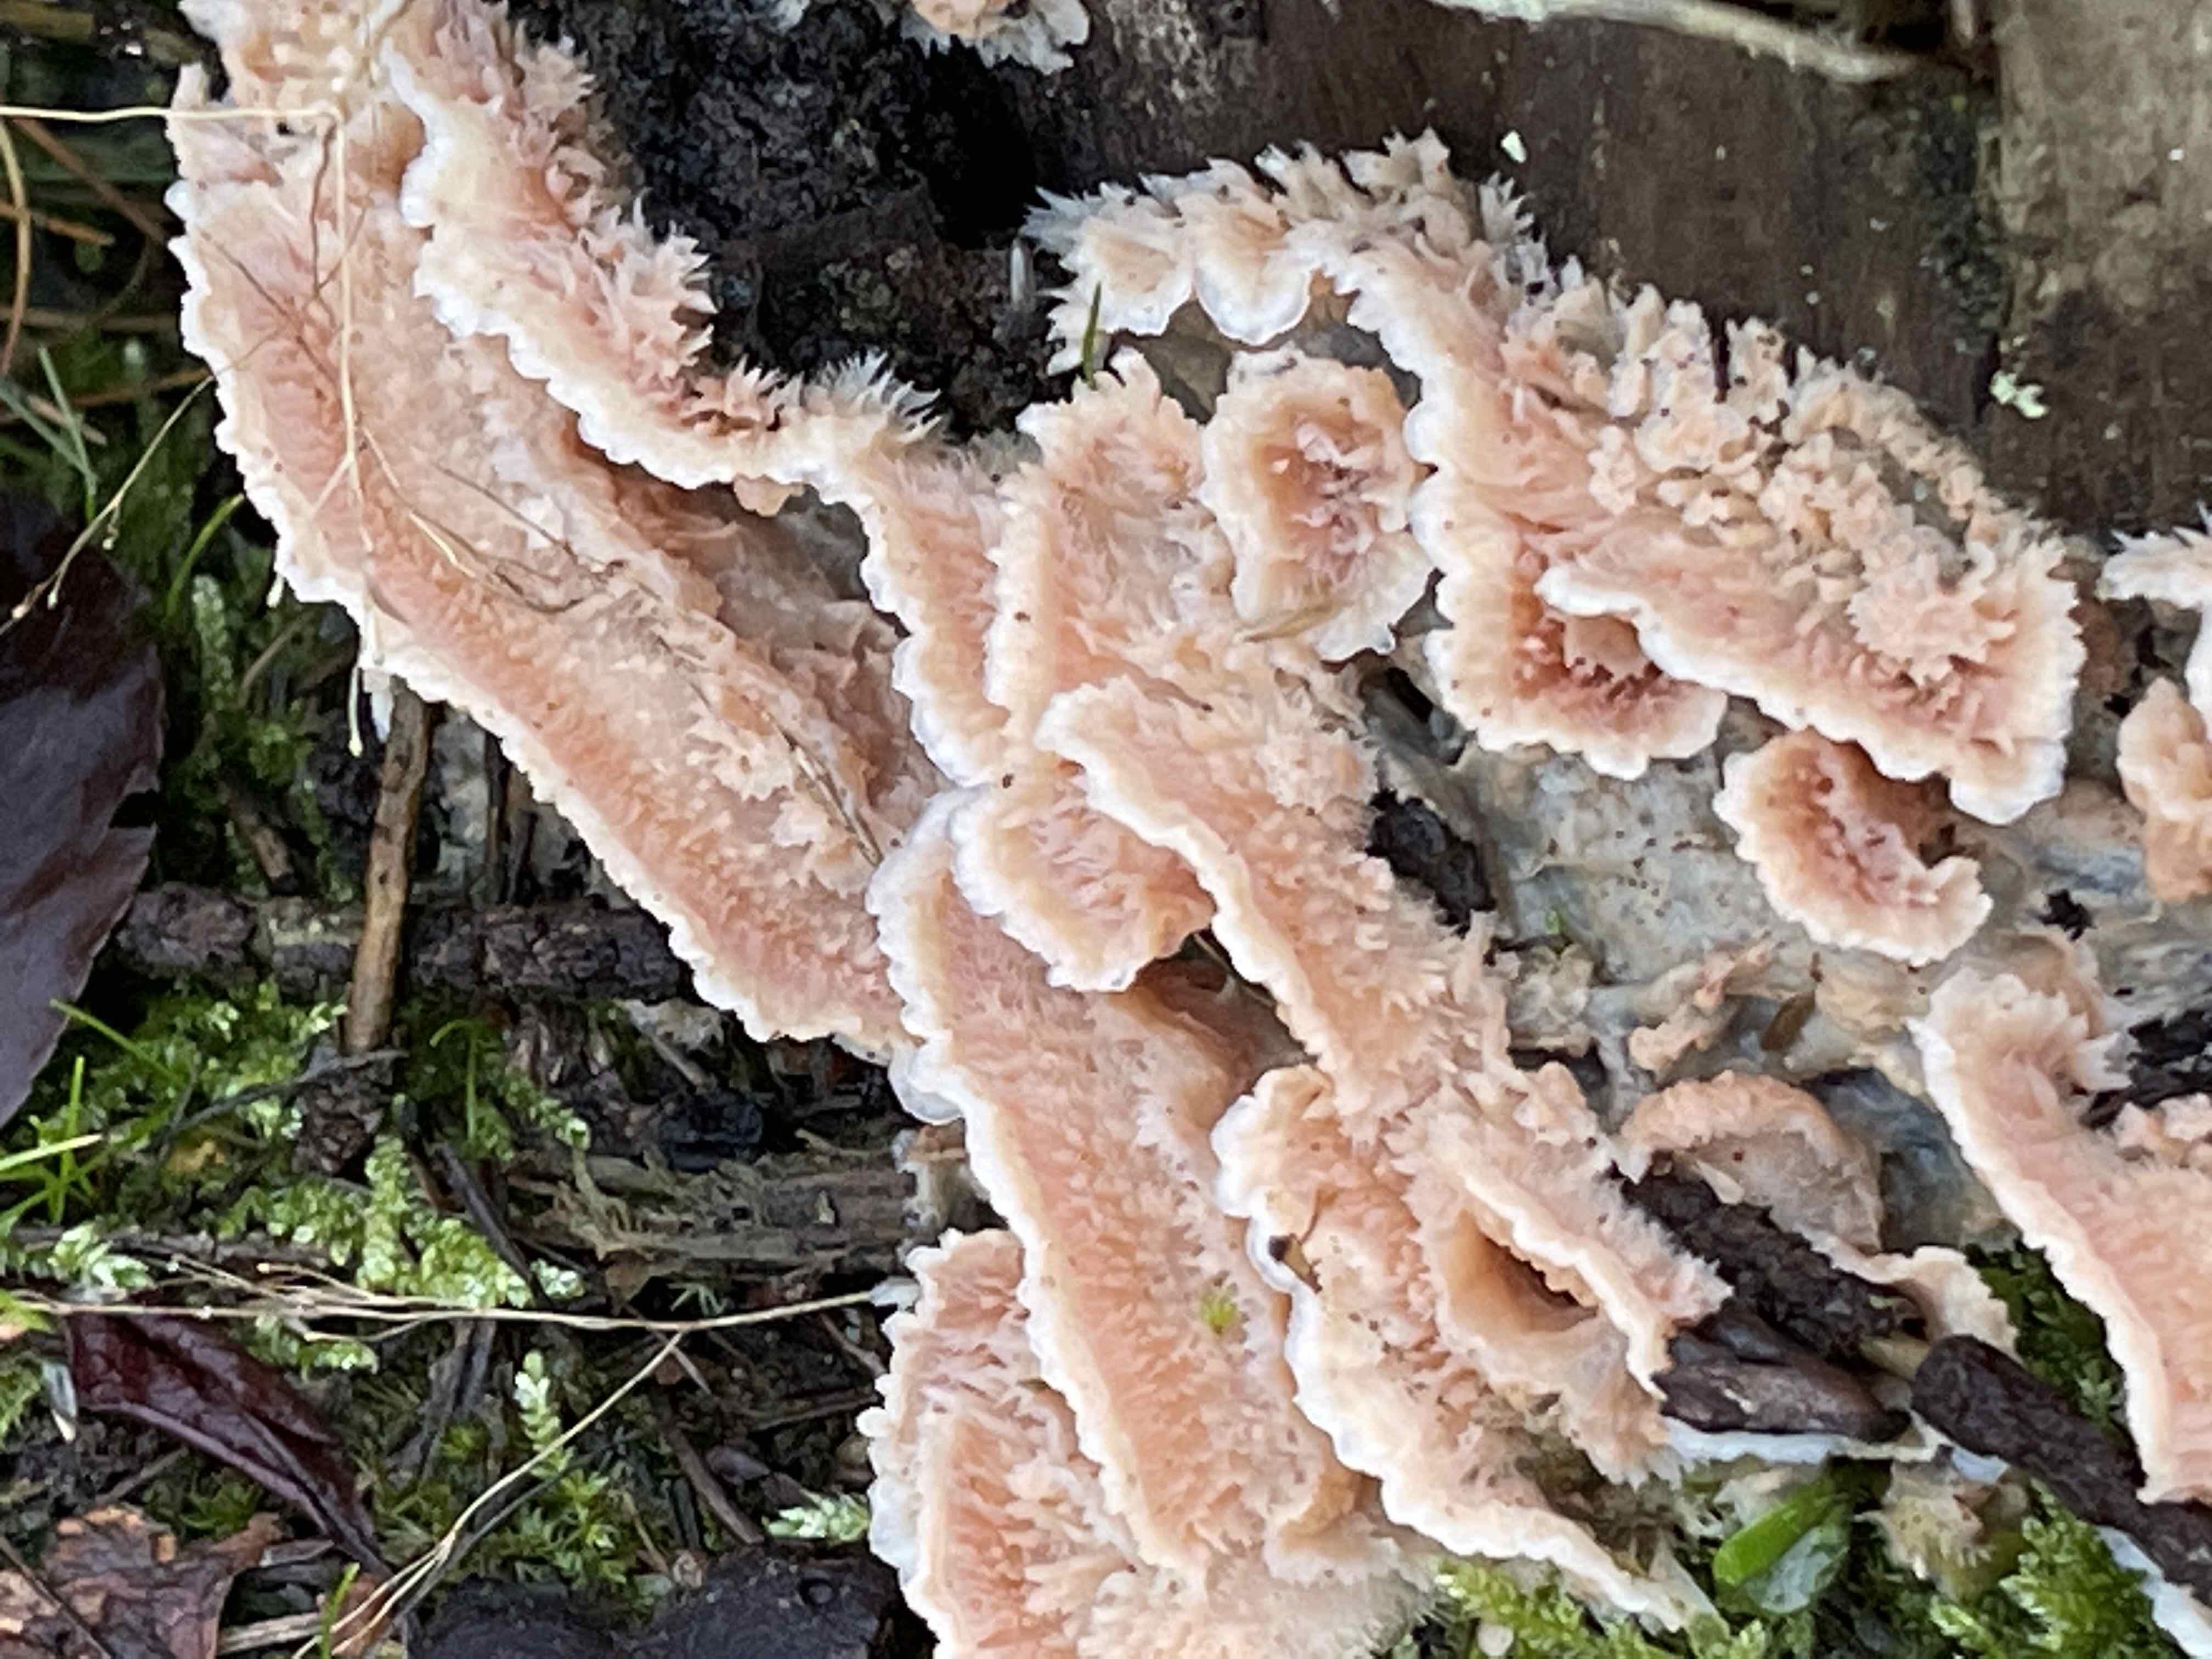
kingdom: Fungi
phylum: Basidiomycota
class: Agaricomycetes
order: Polyporales
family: Meruliaceae
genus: Phlebia
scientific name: Phlebia tremellosa
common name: bævrende åresvamp
